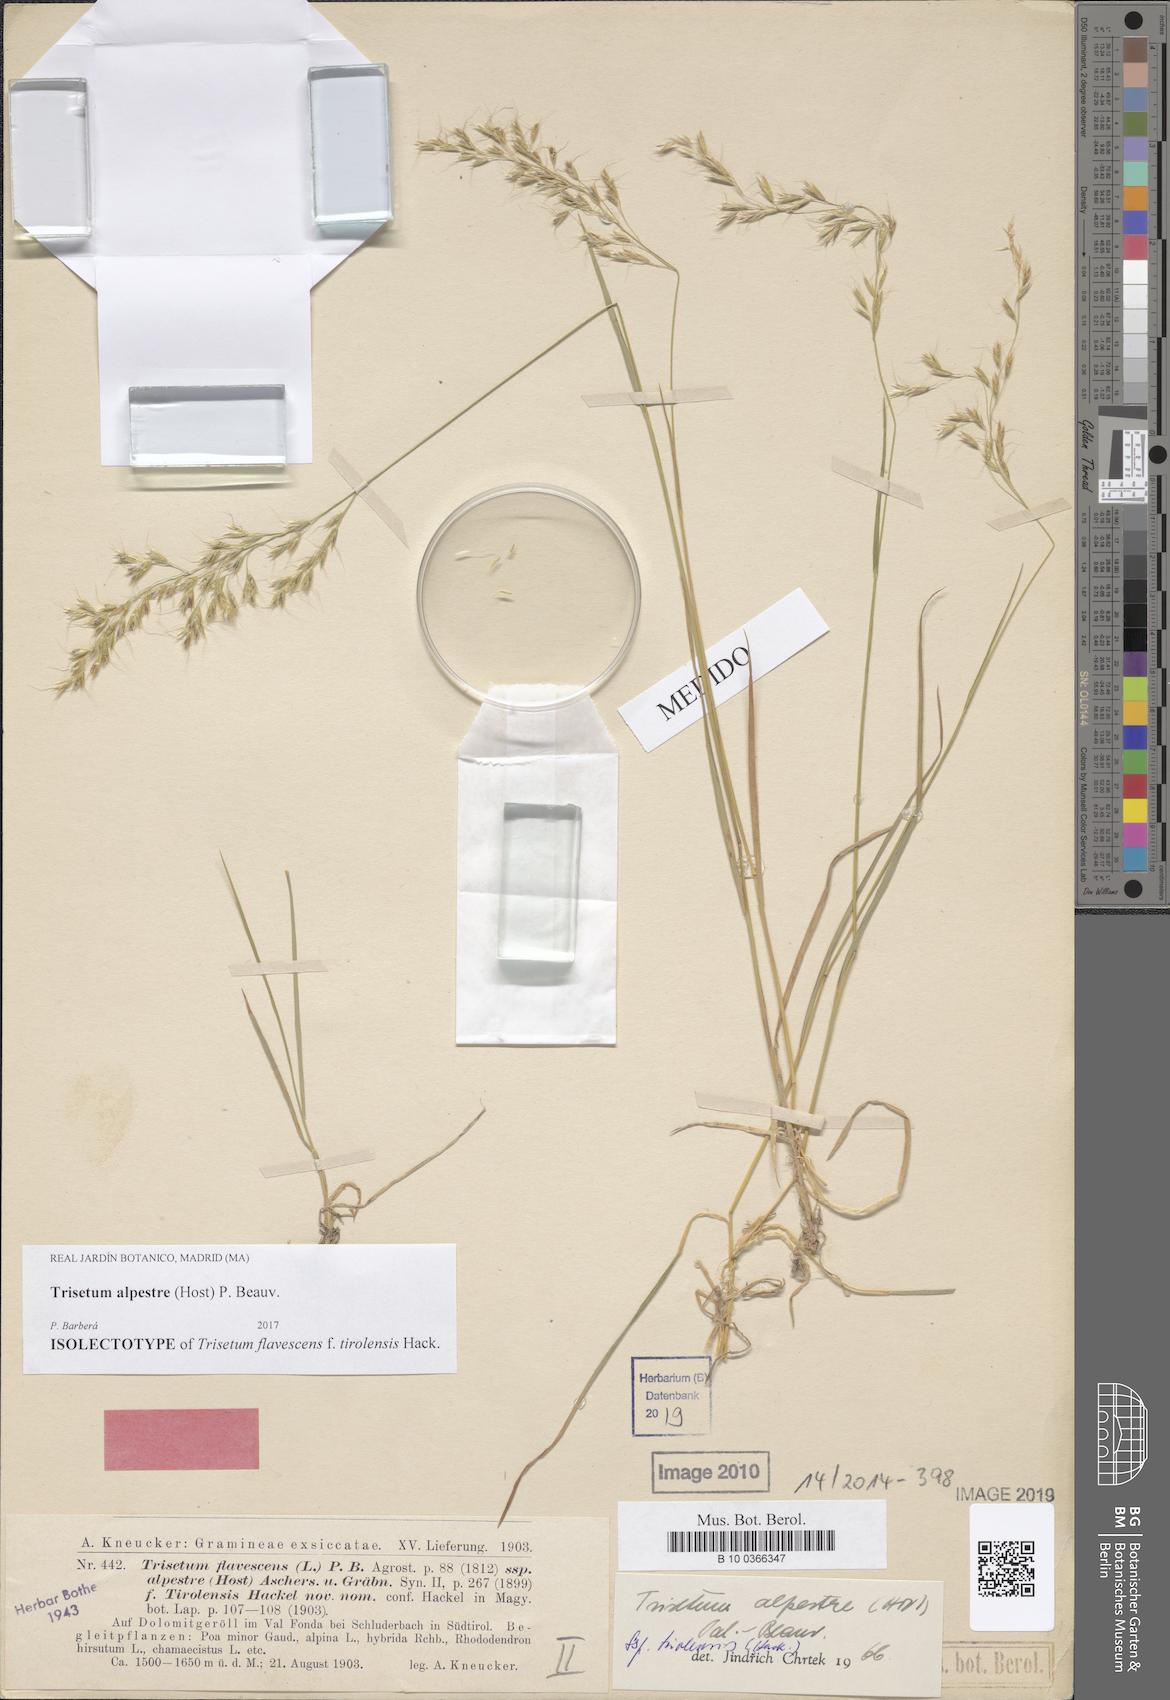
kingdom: Plantae
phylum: Tracheophyta
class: Liliopsida
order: Poales
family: Poaceae
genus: Trisetum
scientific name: Trisetum alpestre
